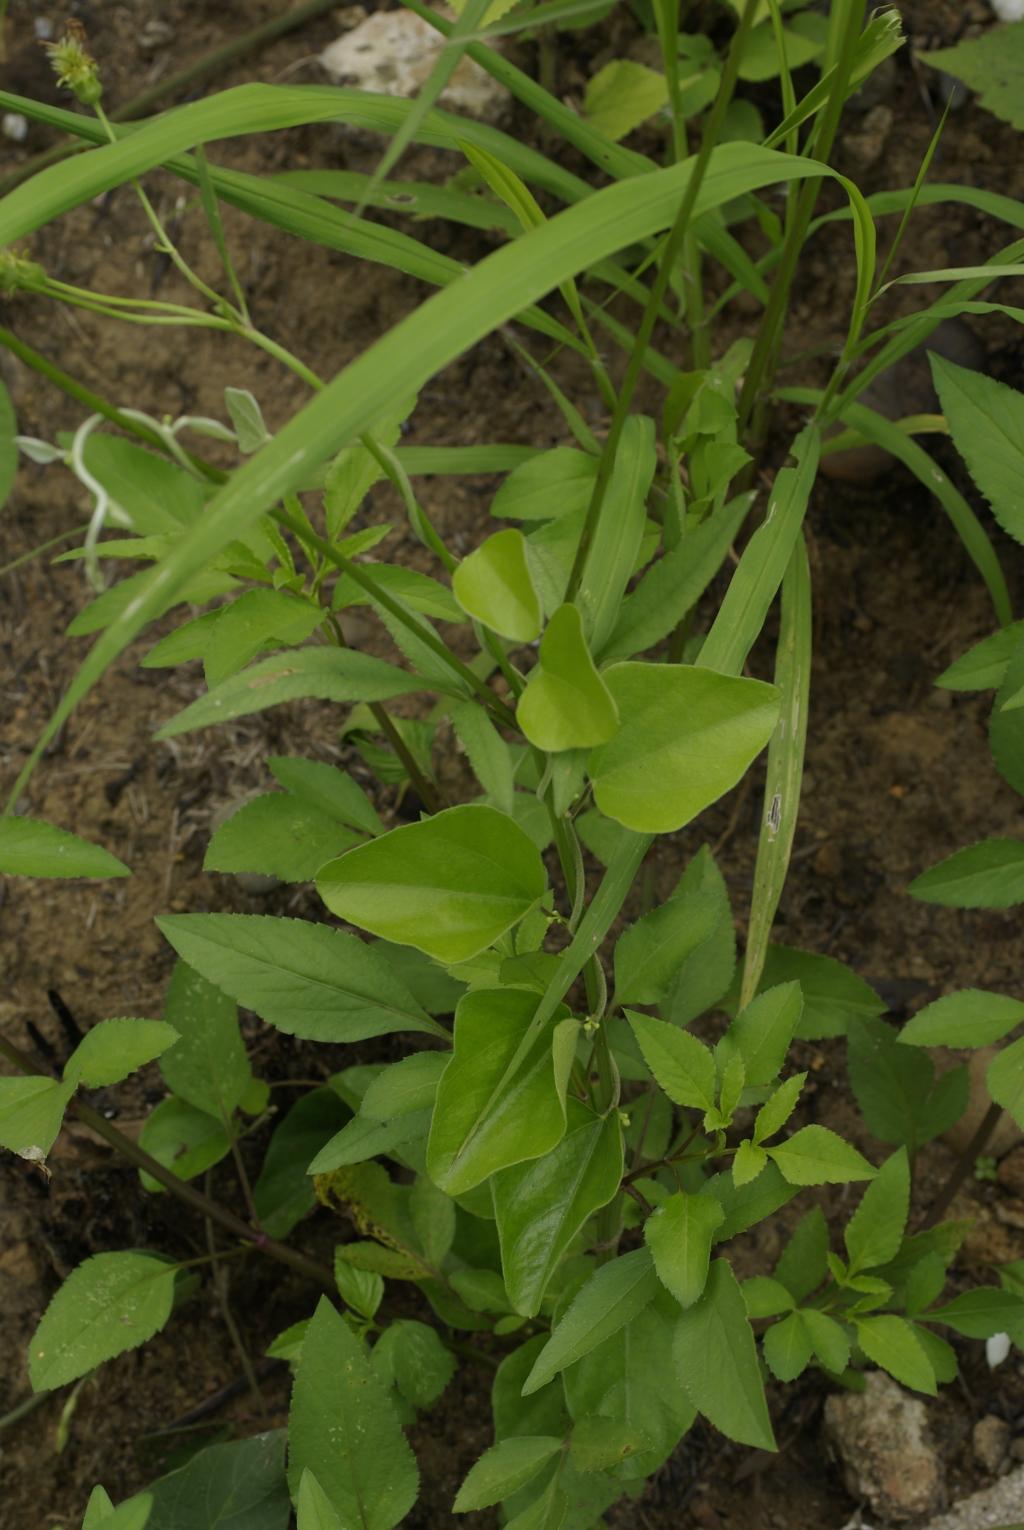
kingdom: Plantae
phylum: Tracheophyta
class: Magnoliopsida
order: Ranunculales
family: Menispermaceae
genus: Cocculus
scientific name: Cocculus orbiculatus
